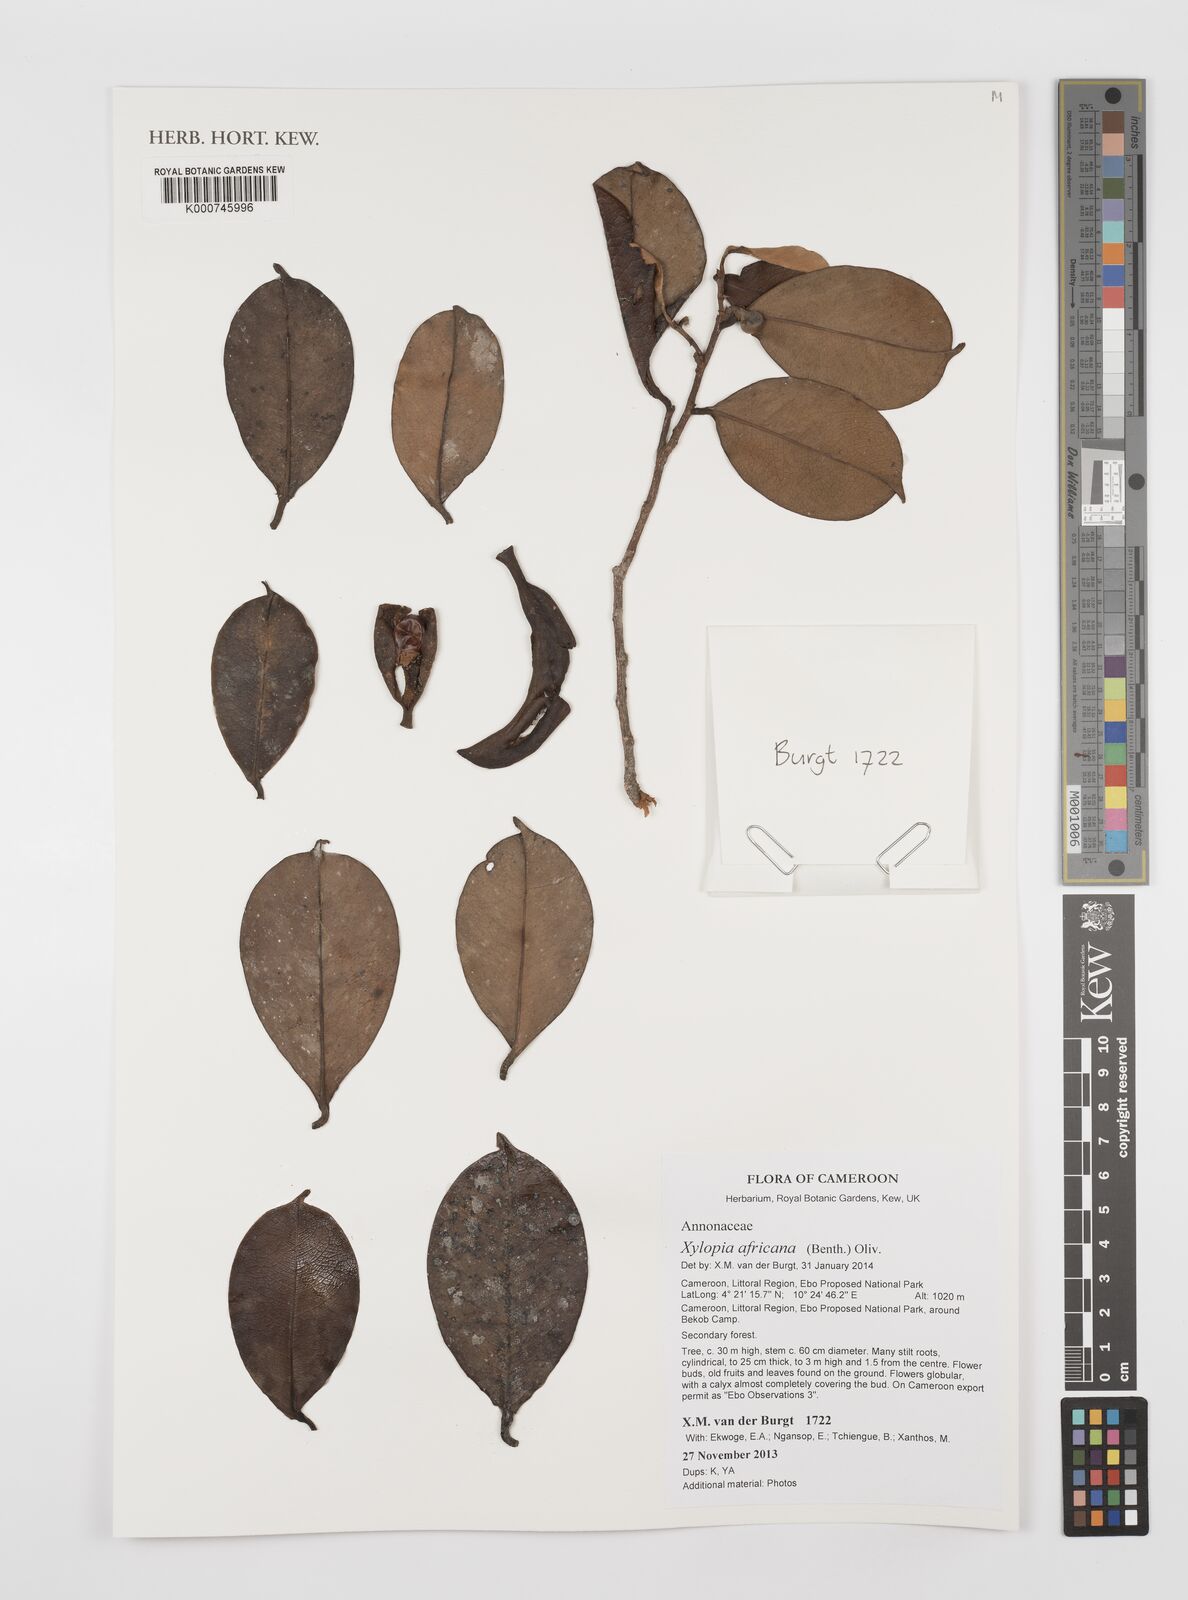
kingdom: Plantae
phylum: Tracheophyta
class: Magnoliopsida
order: Magnoliales
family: Annonaceae
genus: Xylopia
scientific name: Xylopia africana
